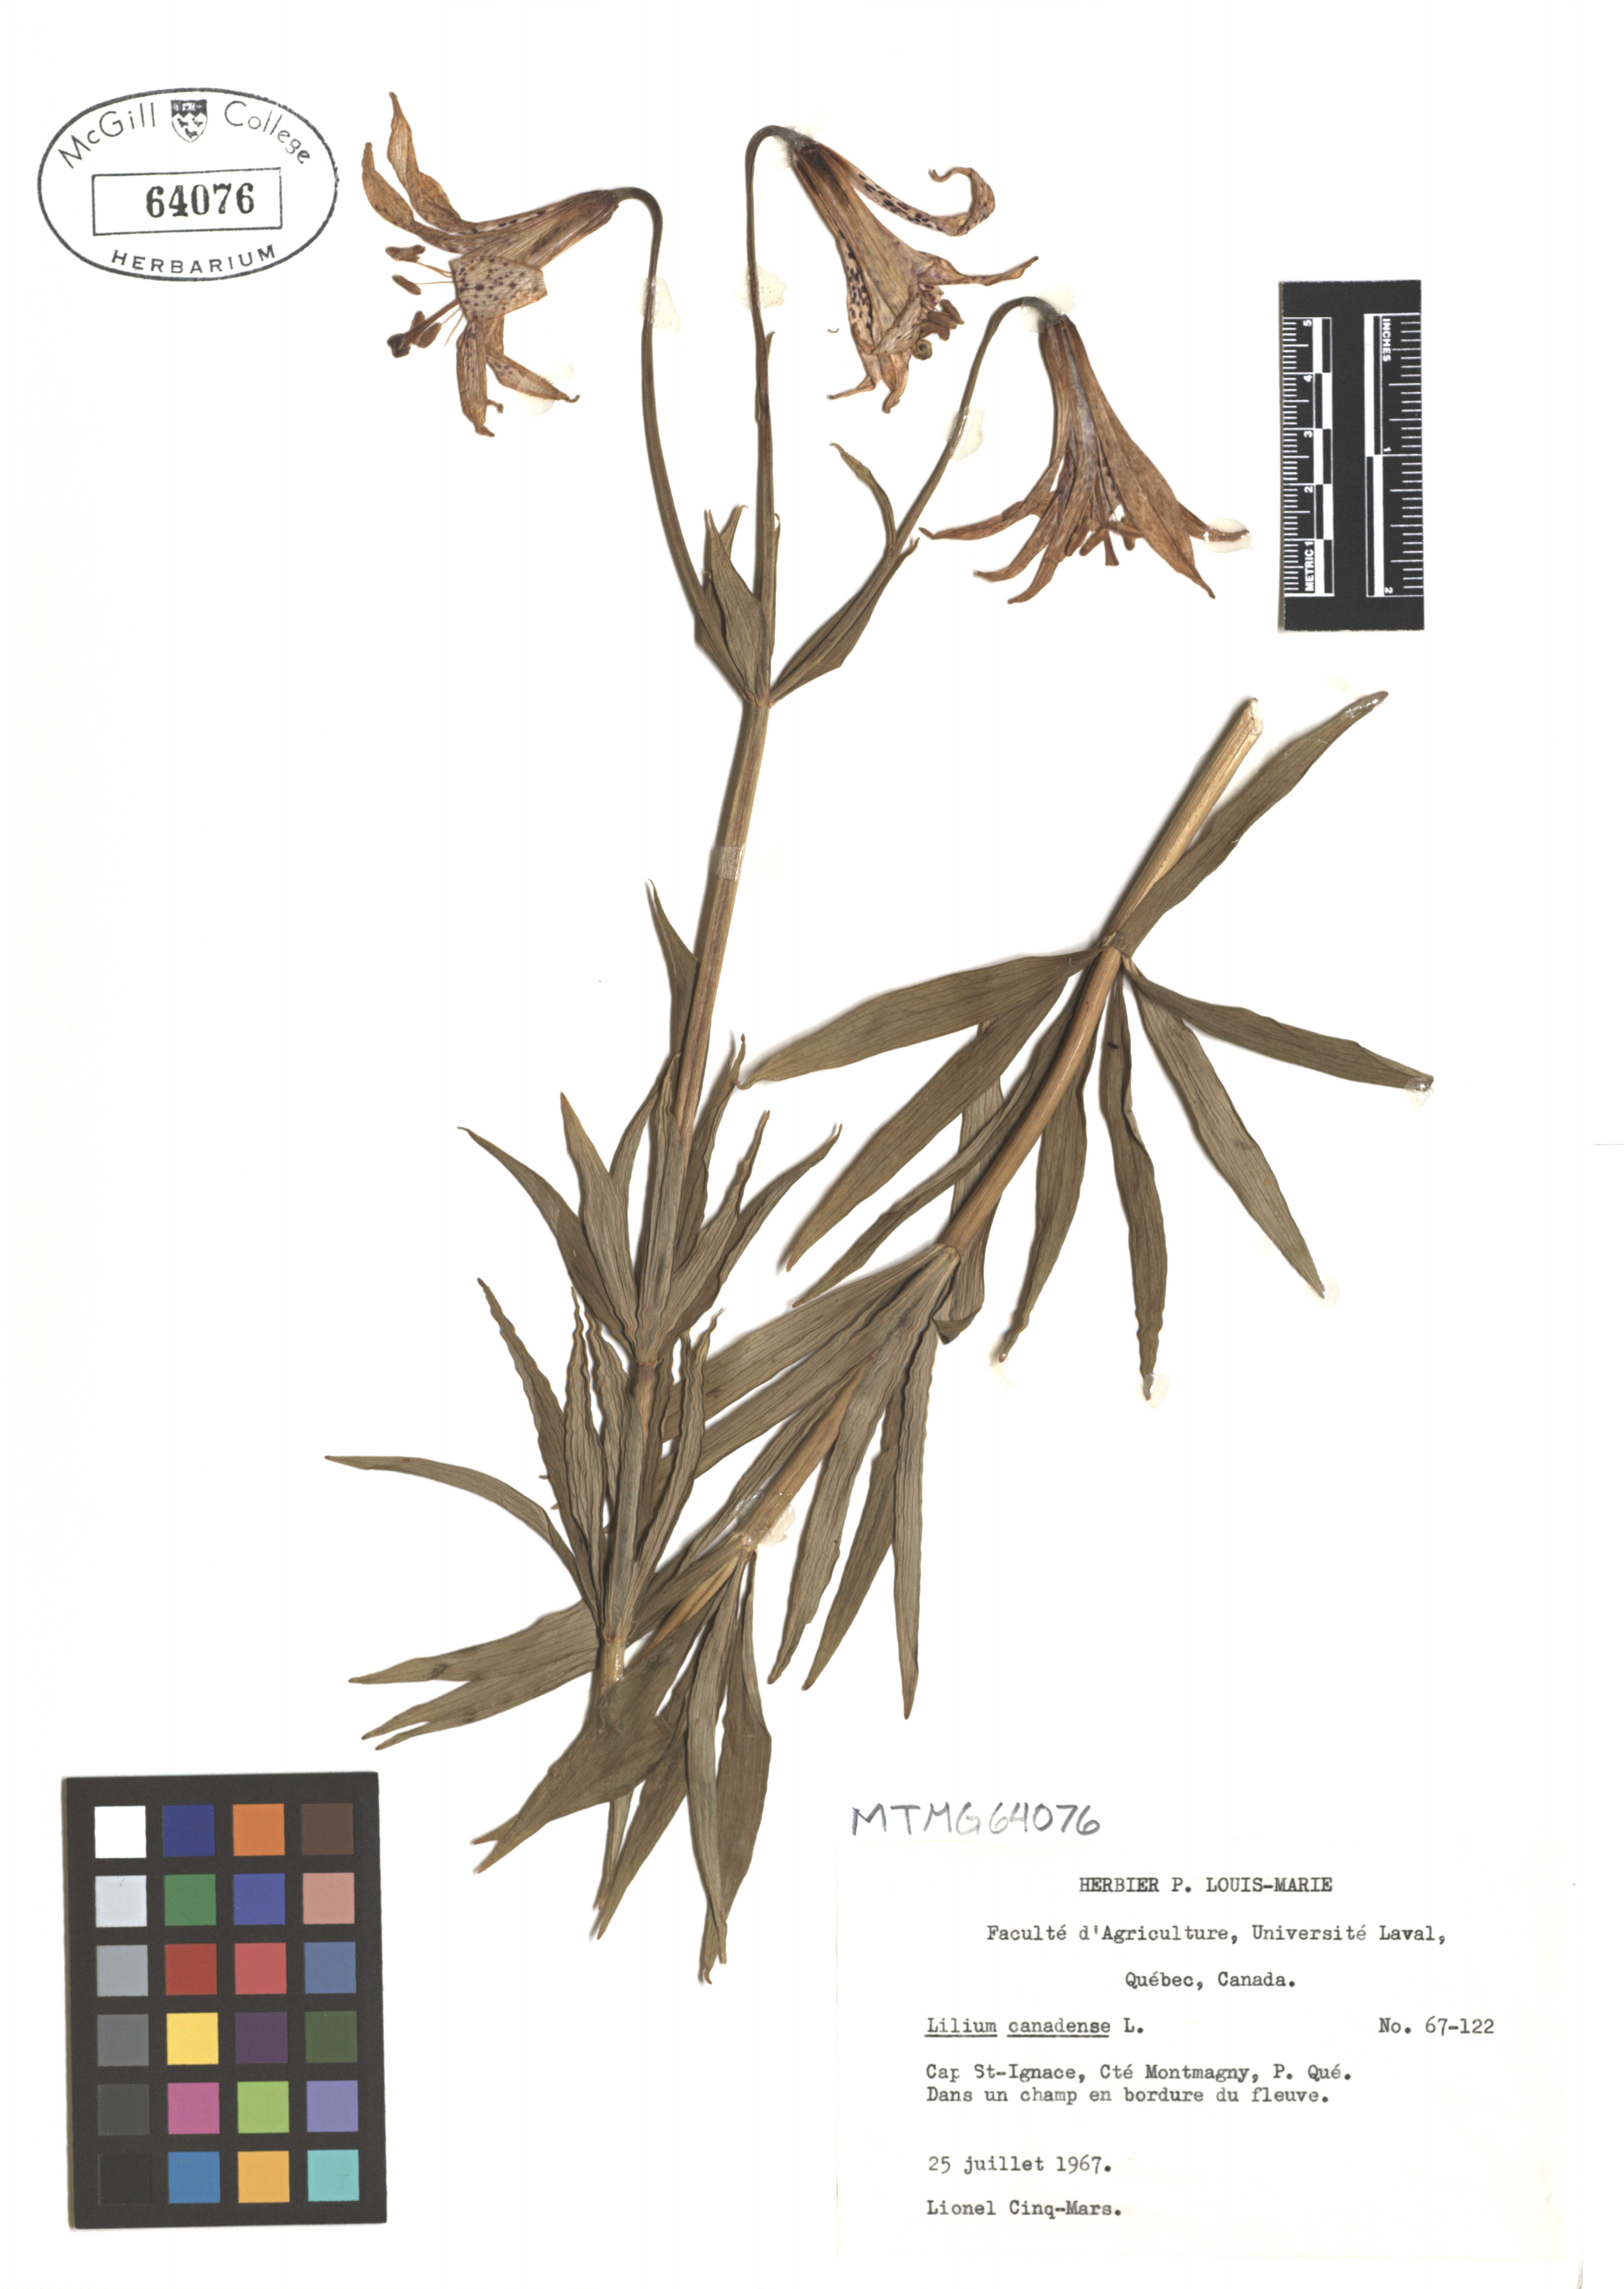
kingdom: Plantae
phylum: Tracheophyta
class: Liliopsida
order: Liliales
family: Liliaceae
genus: Lilium
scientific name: Lilium canadense
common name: Canada lily
